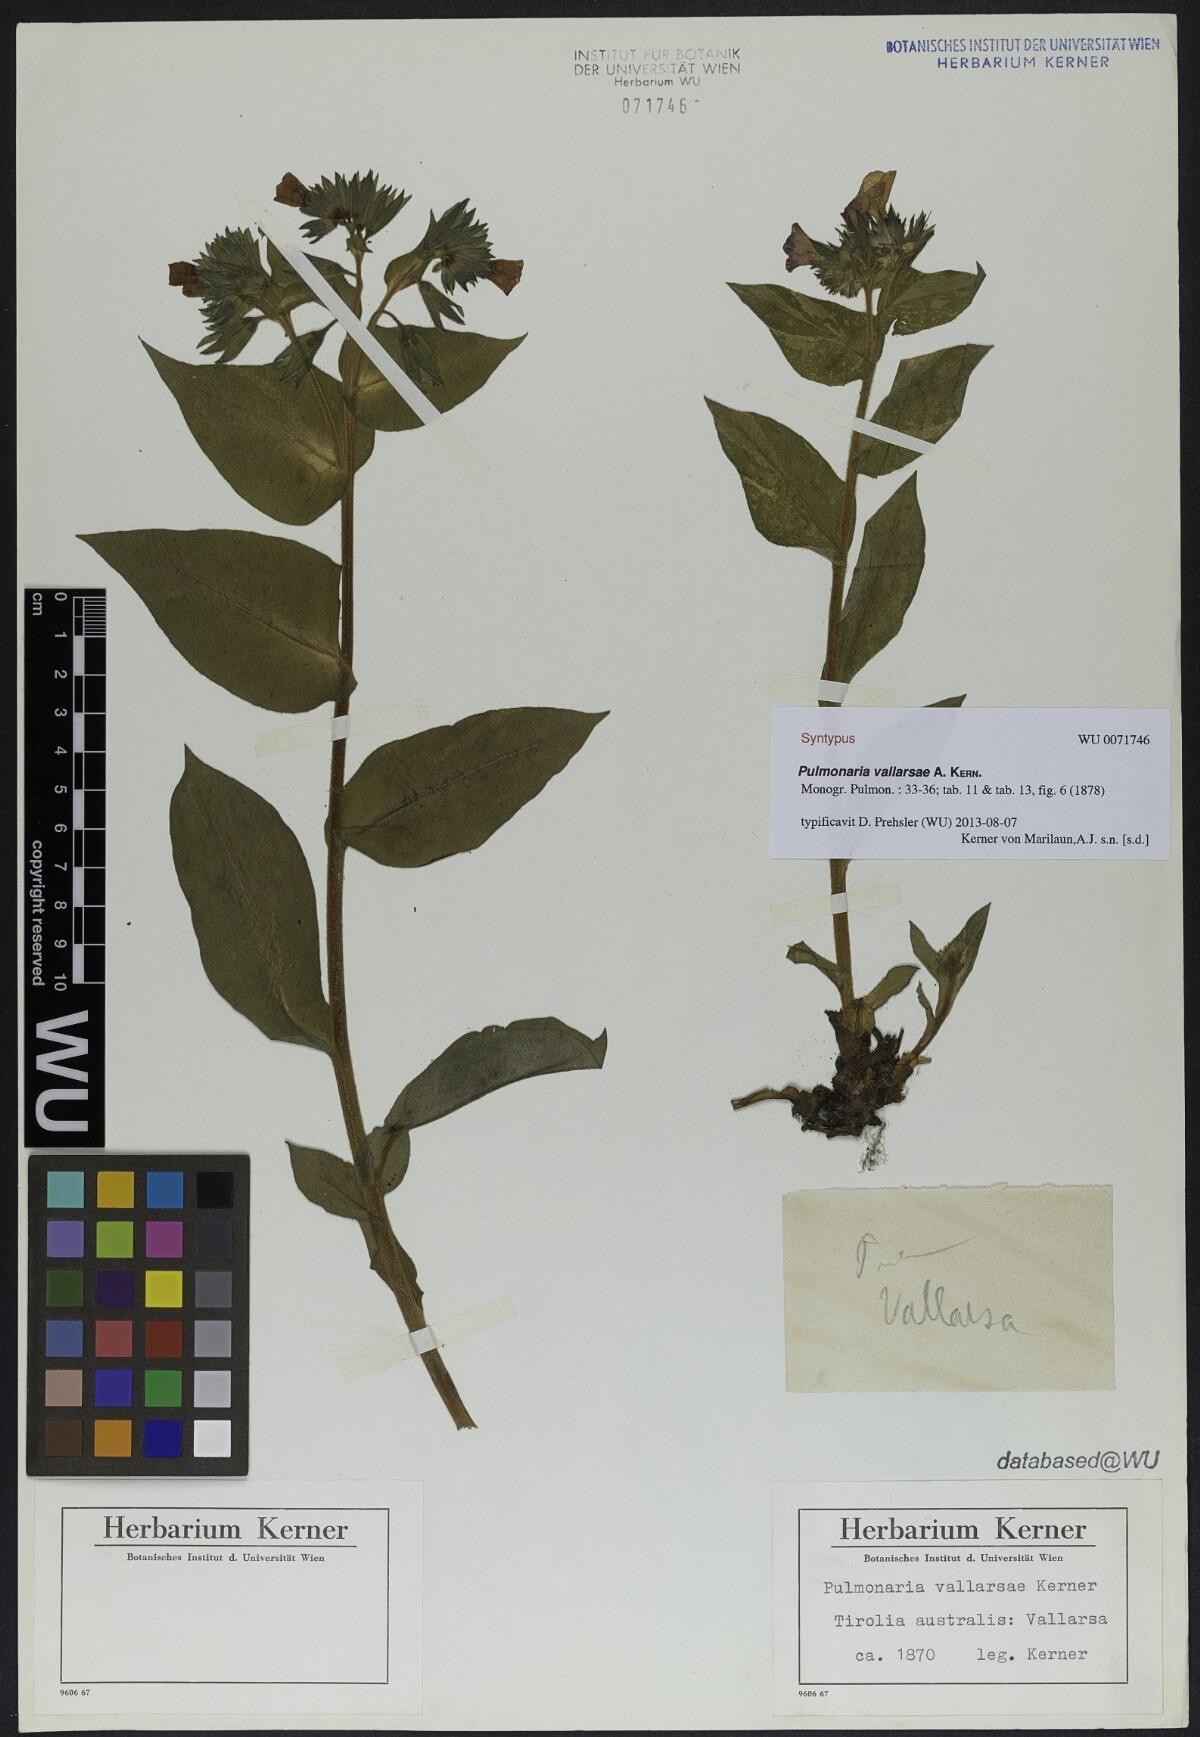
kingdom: Plantae
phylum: Tracheophyta
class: Magnoliopsida
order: Boraginales
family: Boraginaceae
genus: Pulmonaria
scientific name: Pulmonaria hirta
